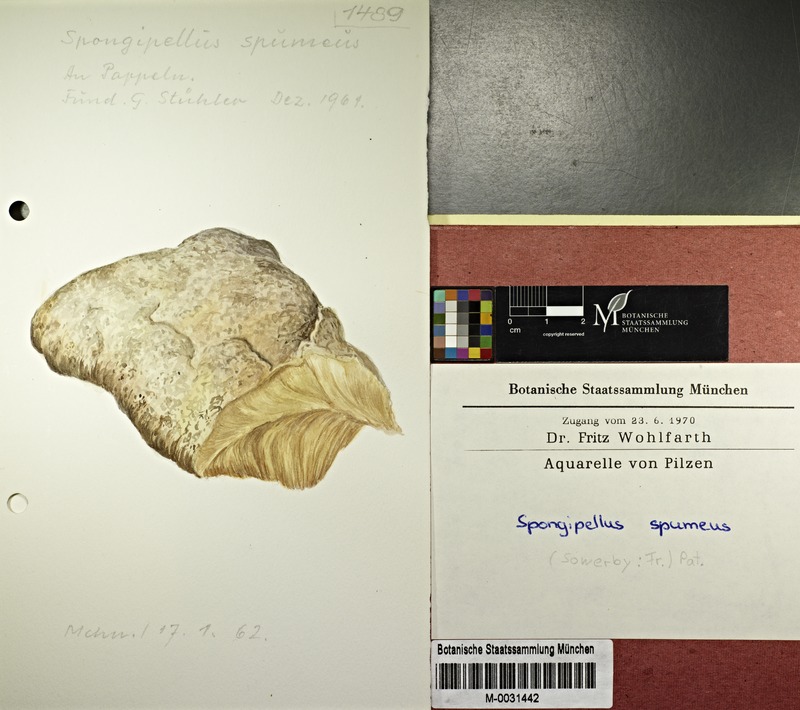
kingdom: Fungi
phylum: Basidiomycota
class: Agaricomycetes
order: Polyporales
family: Meruliaceae
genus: Sarcodontia
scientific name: Sarcodontia spumea
